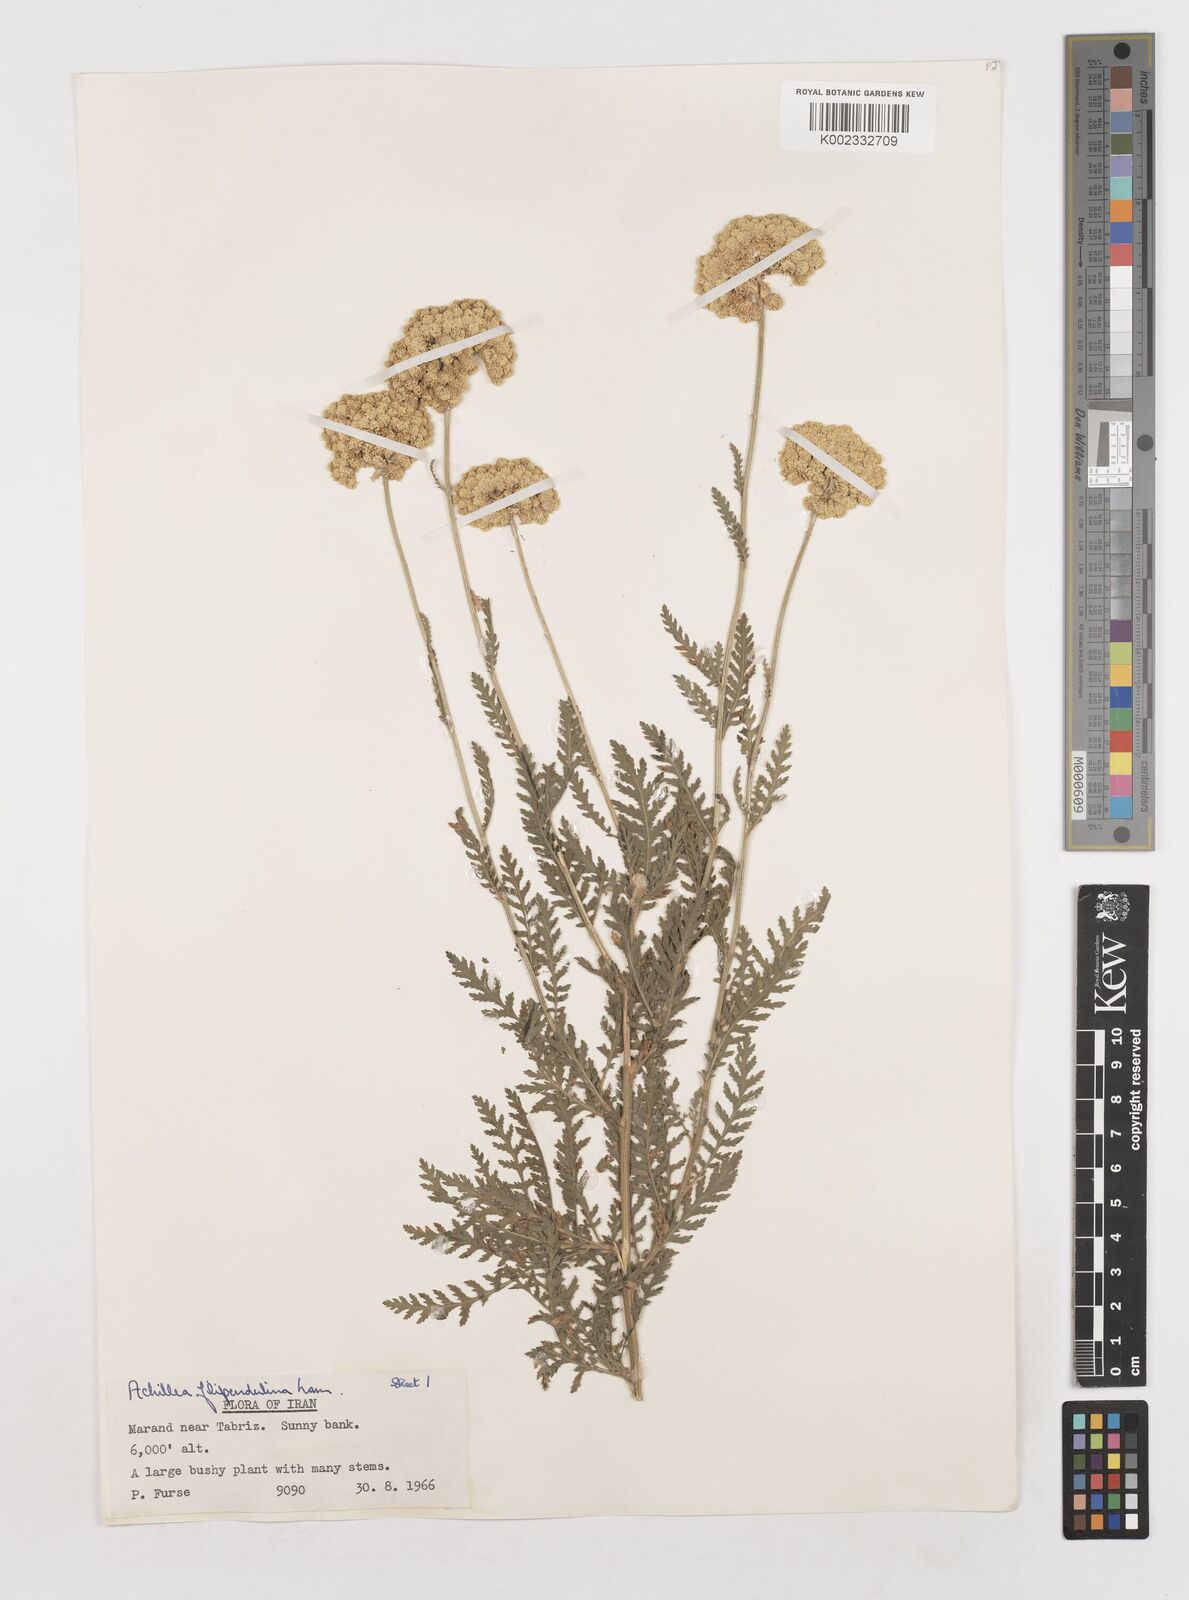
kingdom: Plantae
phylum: Tracheophyta
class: Magnoliopsida
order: Asterales
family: Asteraceae
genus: Achillea
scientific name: Achillea filipendulina
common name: Fernleaf yarrow
